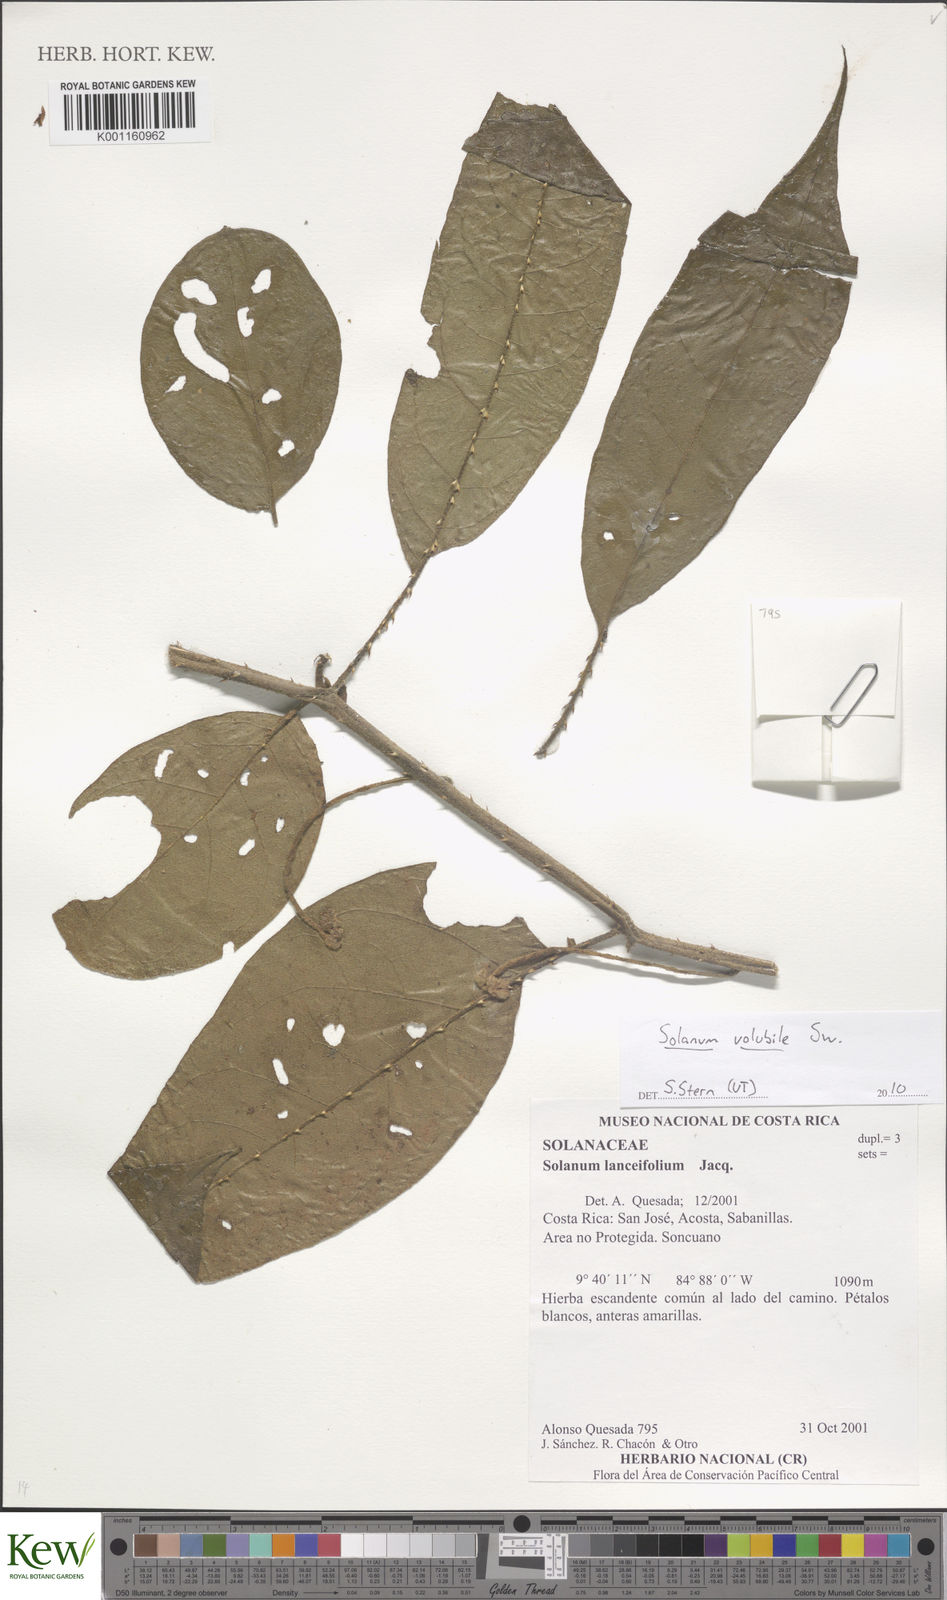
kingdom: Plantae
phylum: Tracheophyta
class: Magnoliopsida
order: Solanales
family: Solanaceae
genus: Solanum
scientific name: Solanum volubile
